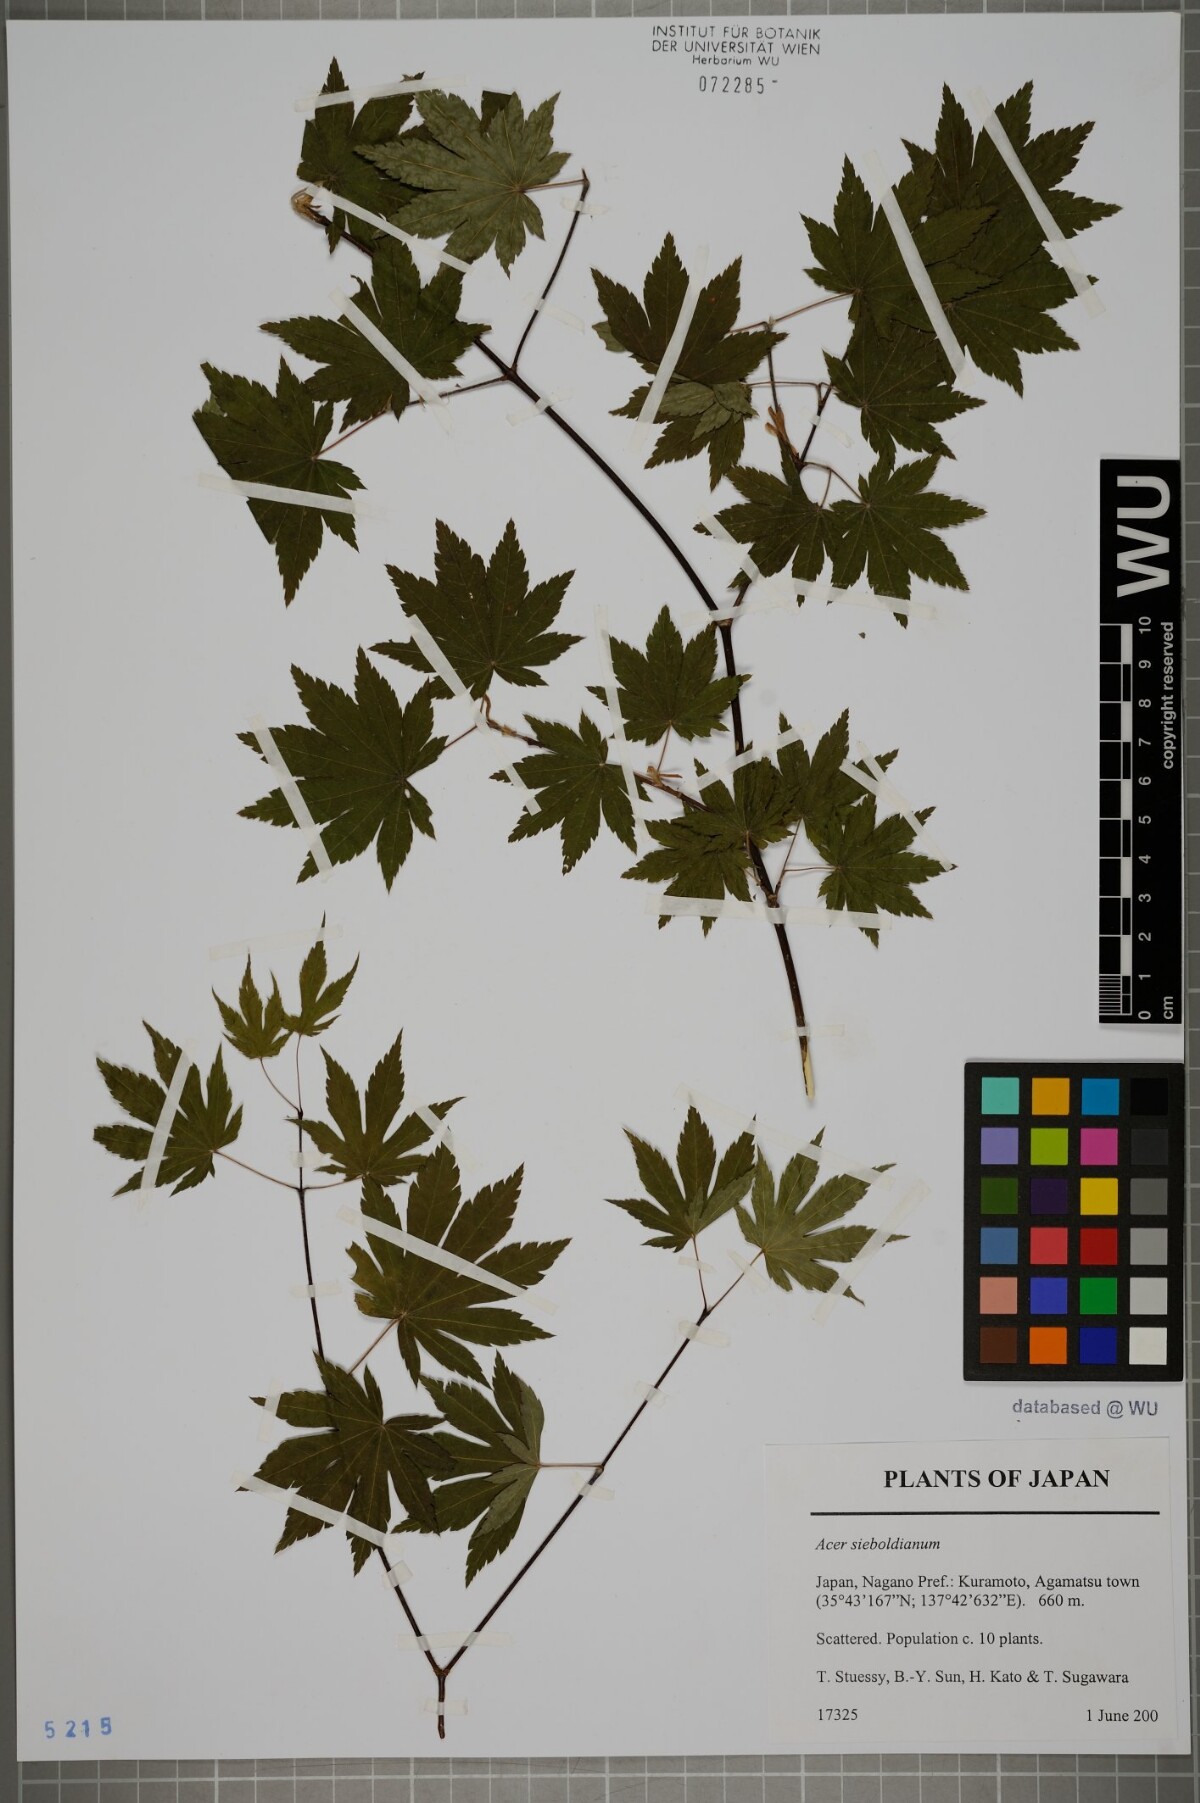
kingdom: Plantae
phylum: Tracheophyta
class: Magnoliopsida
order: Sapindales
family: Sapindaceae
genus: Acer
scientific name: Acer sieboldianum
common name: Siebold's maple
